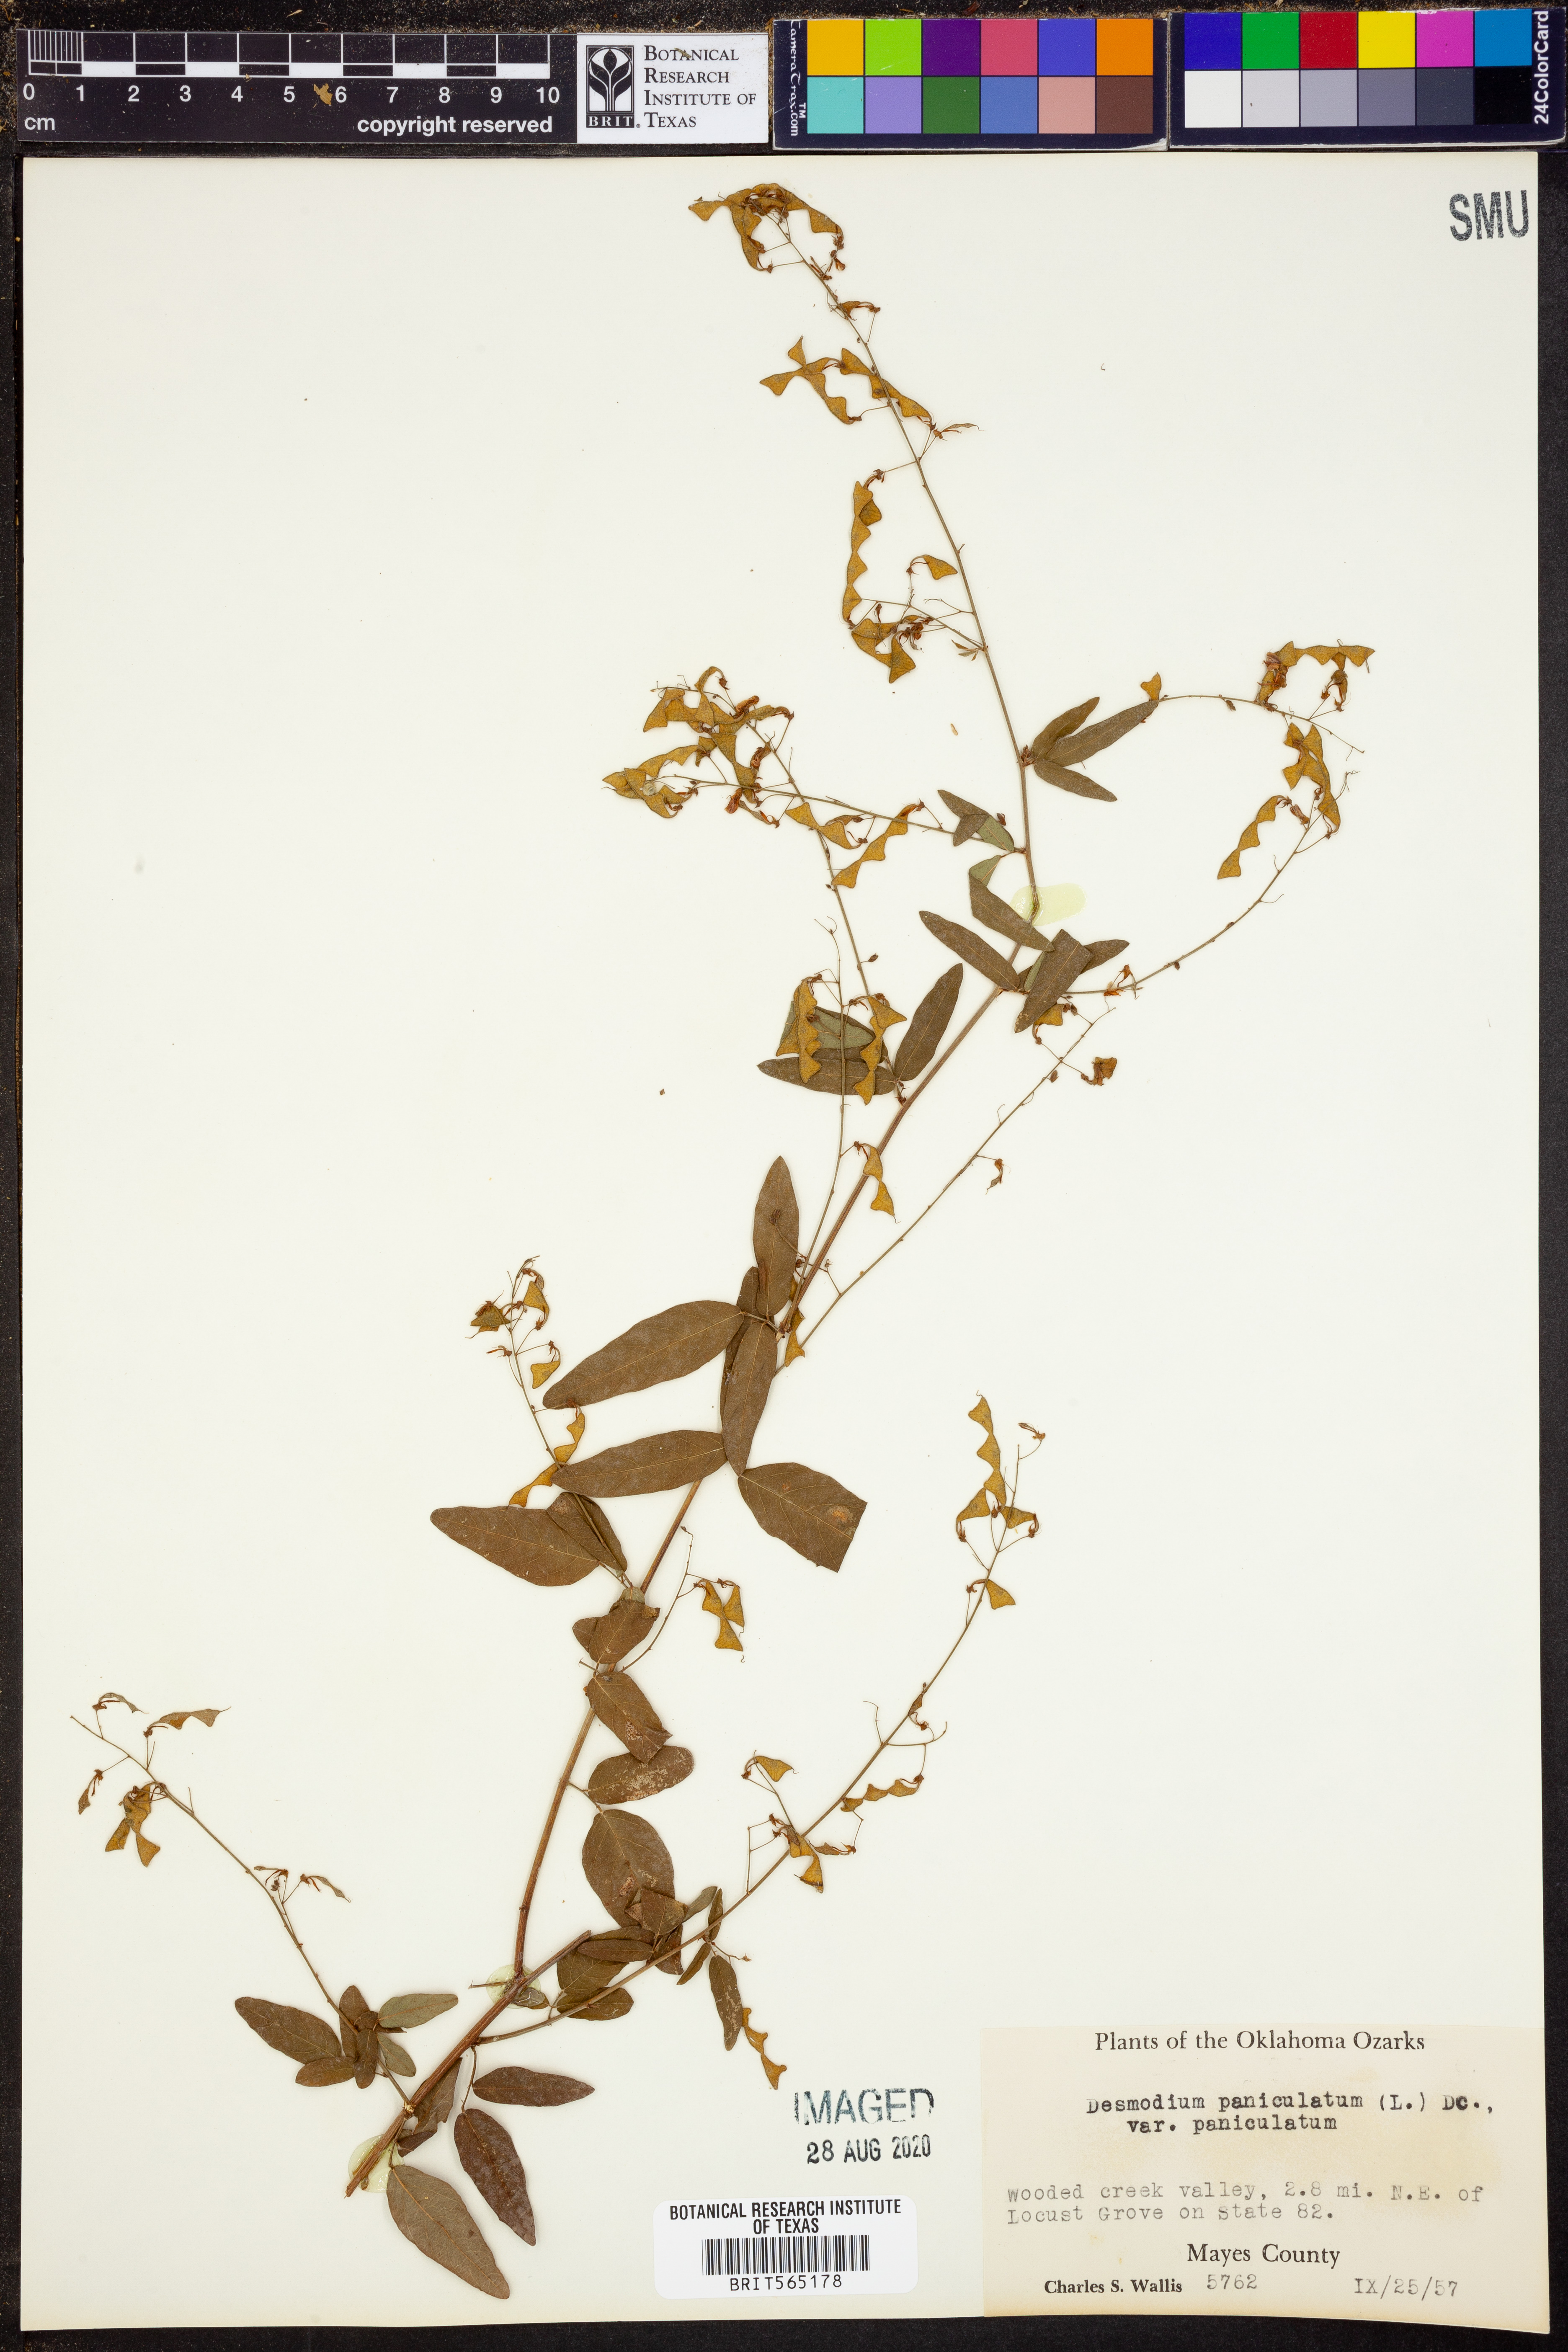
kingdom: Plantae
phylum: Tracheophyta
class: Magnoliopsida
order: Fabales
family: Fabaceae
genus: Desmodium
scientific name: Desmodium paniculatum
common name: Panicled tick-clover
